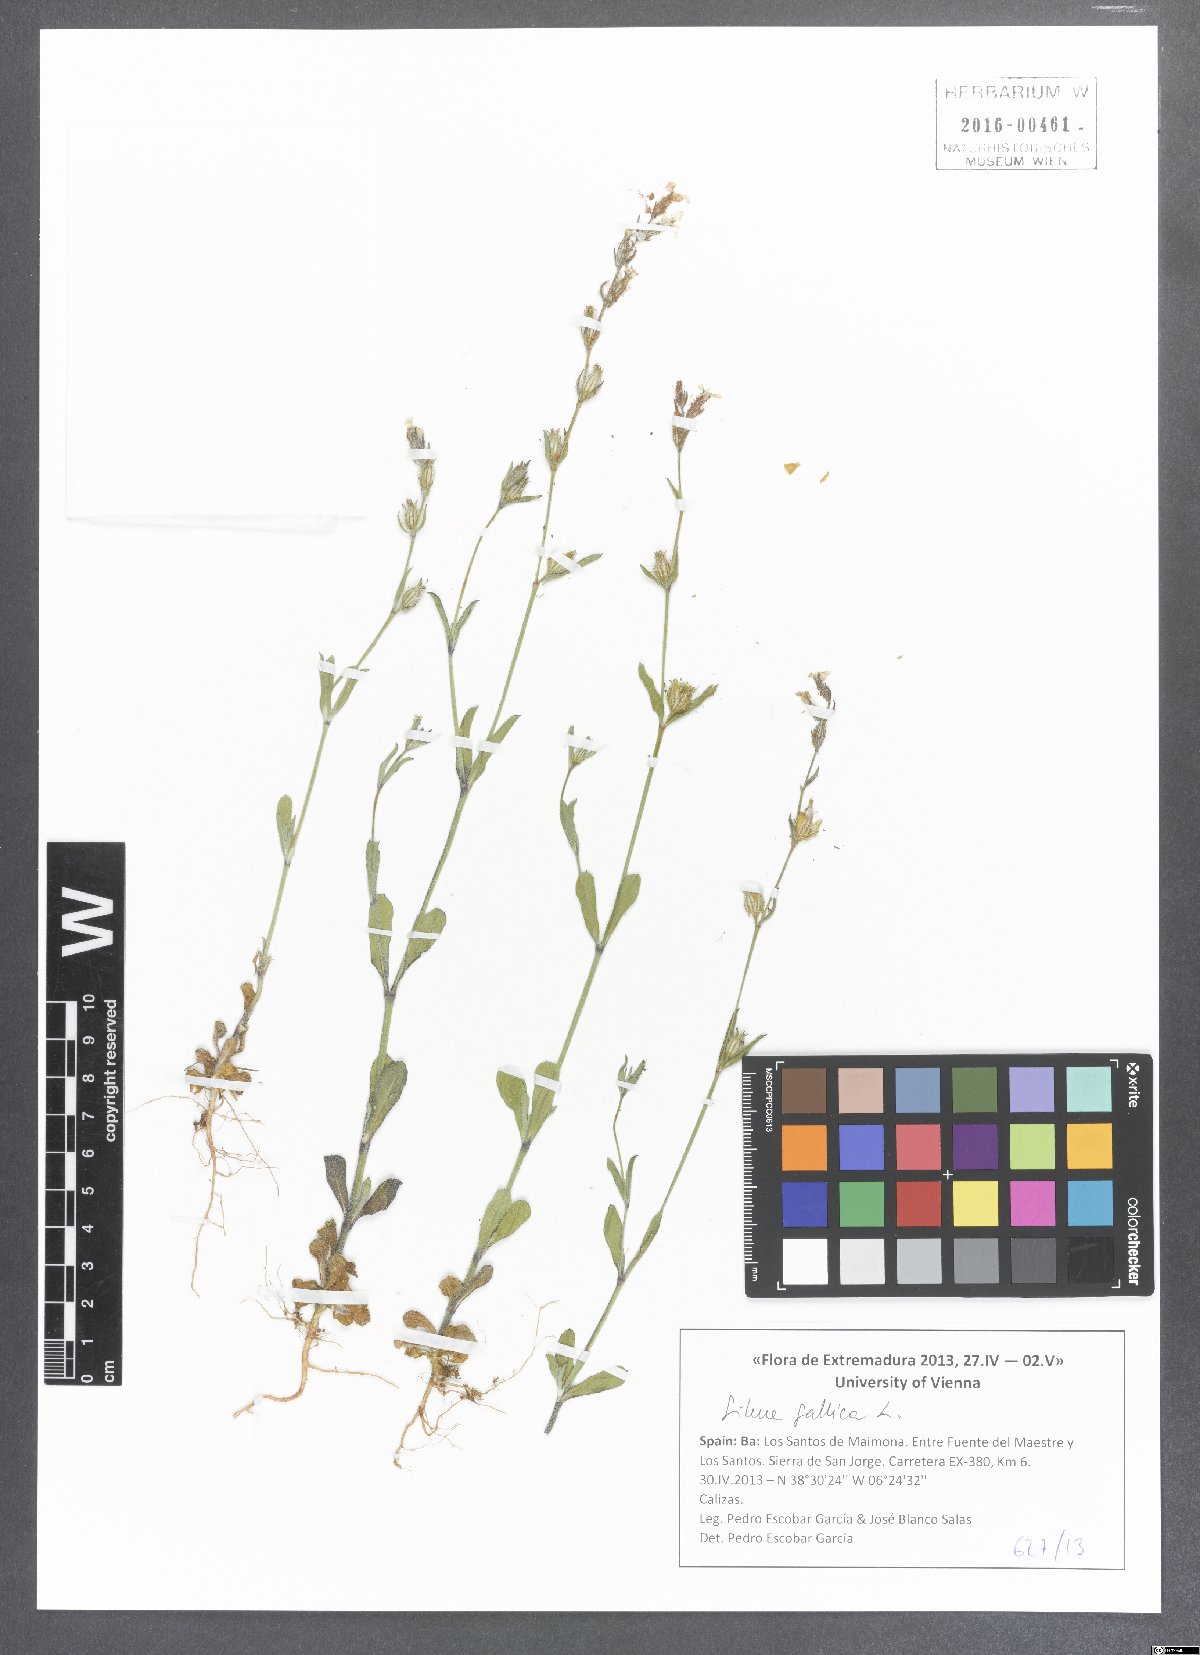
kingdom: Plantae
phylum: Tracheophyta
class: Magnoliopsida
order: Caryophyllales
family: Caryophyllaceae
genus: Silene
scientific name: Silene gallica
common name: Small-flowered catchfly
